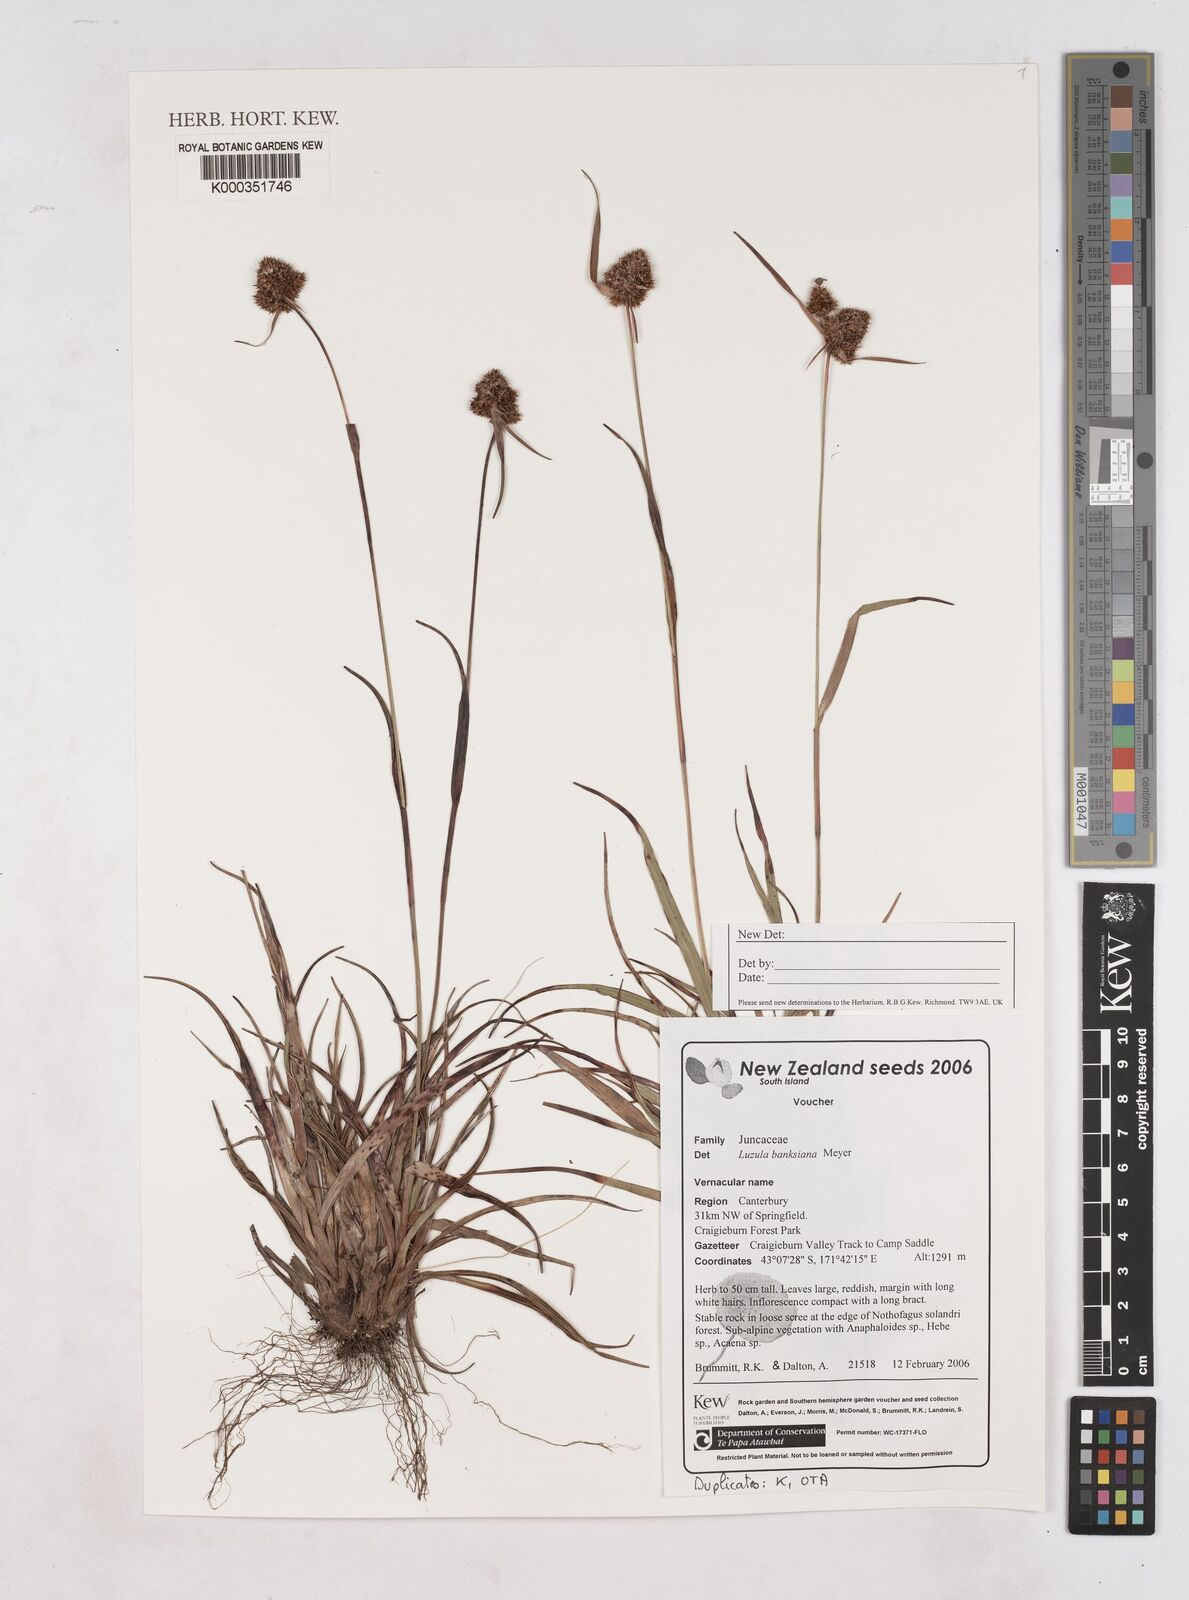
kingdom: Plantae
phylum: Tracheophyta
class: Liliopsida
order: Poales
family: Juncaceae
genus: Luzula
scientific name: Luzula banksiana
